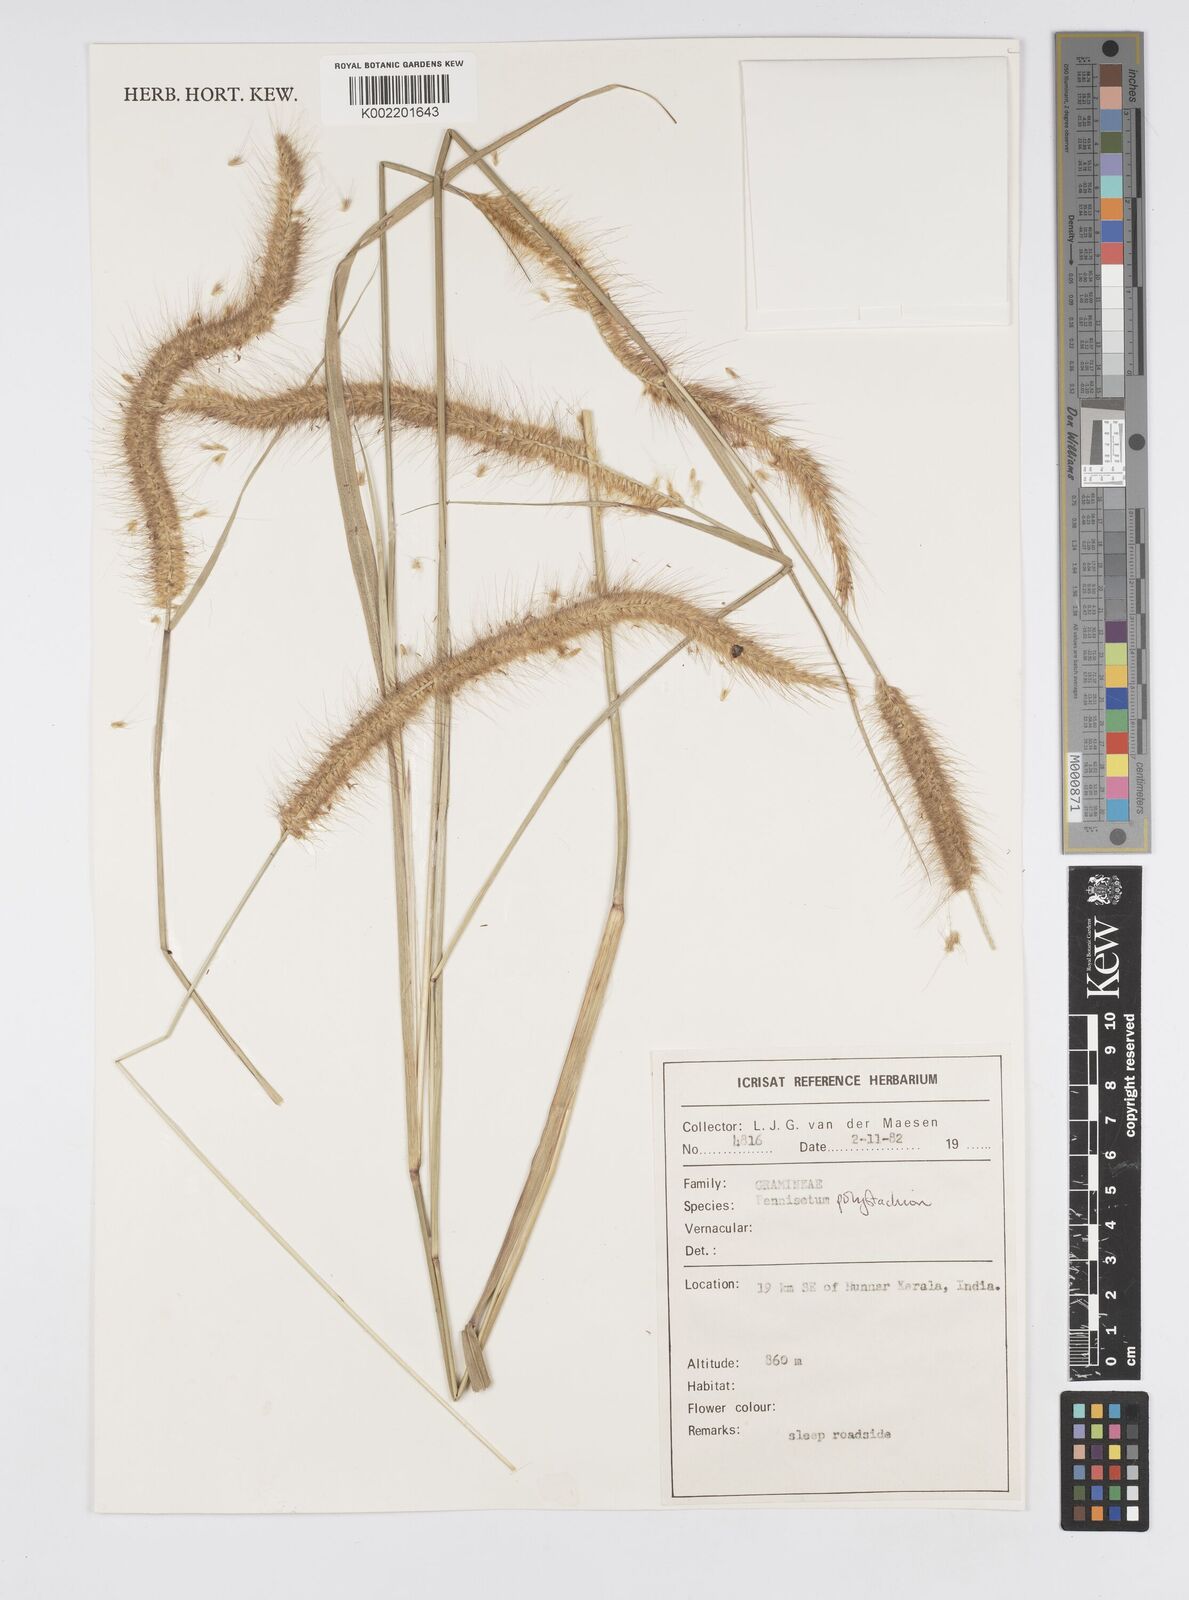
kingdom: Plantae
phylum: Tracheophyta
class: Liliopsida
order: Poales
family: Poaceae
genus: Setaria
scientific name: Setaria parviflora
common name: Knotroot bristle-grass
